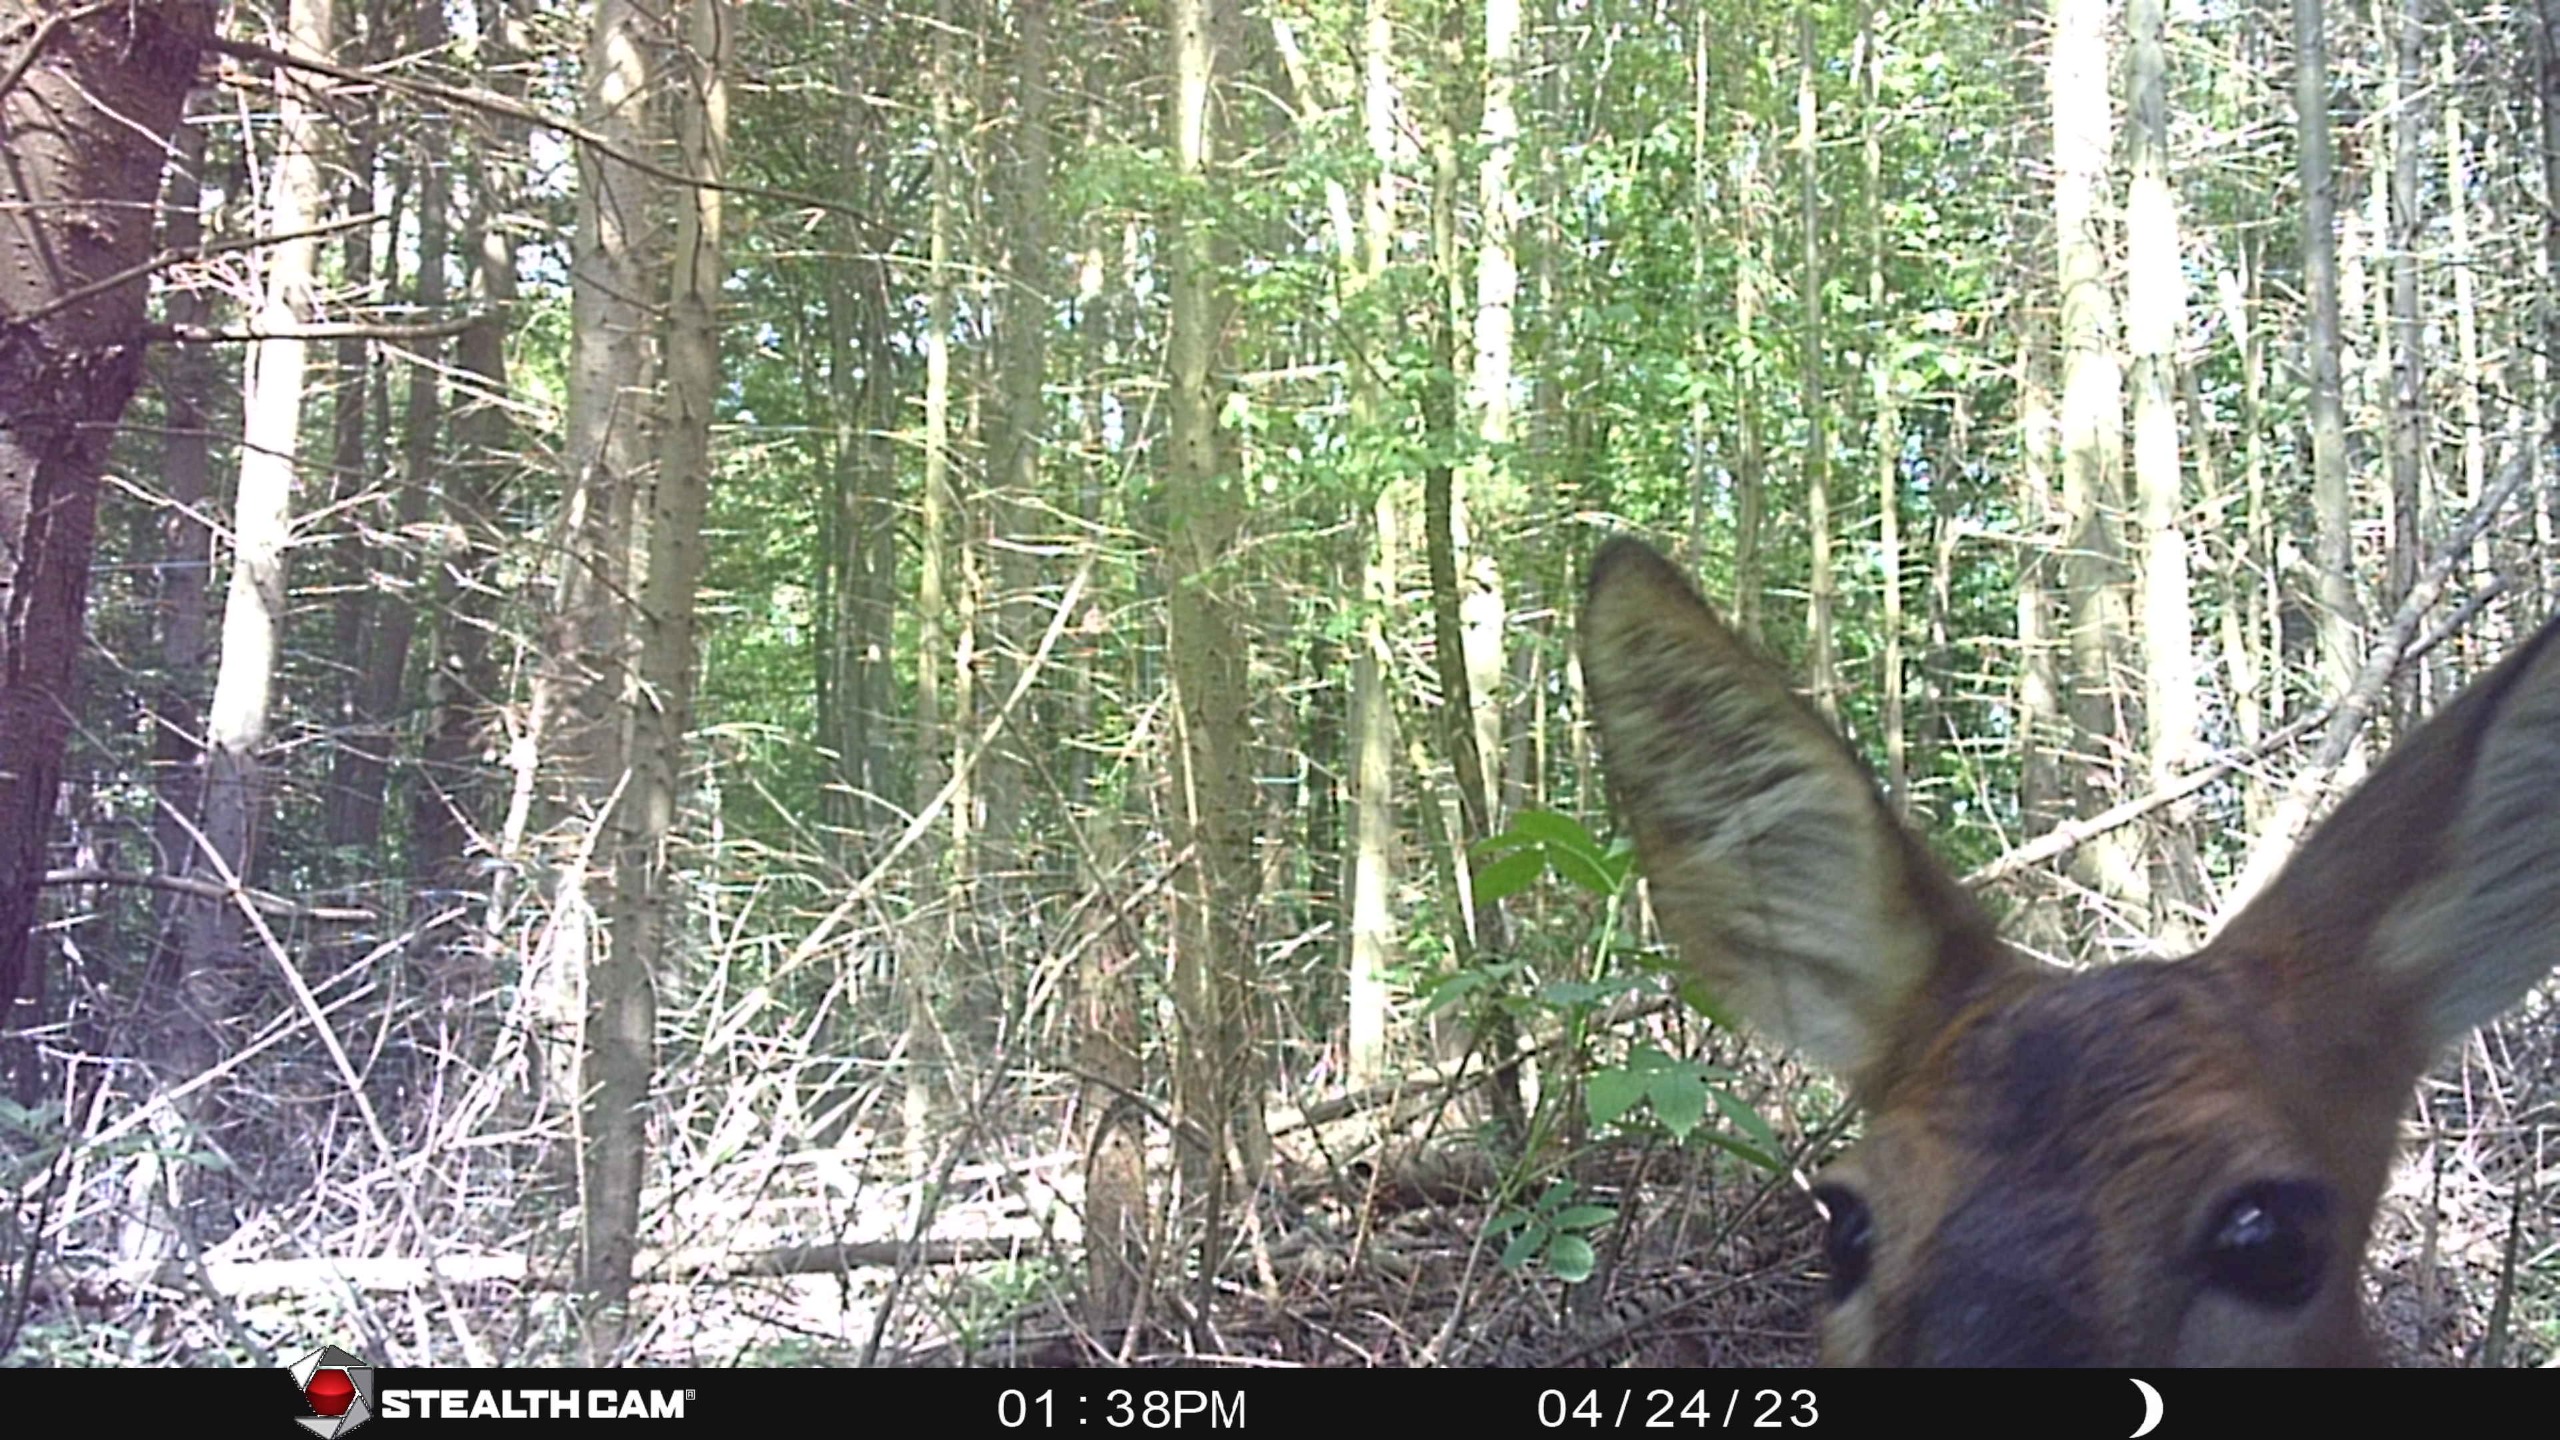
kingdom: Animalia
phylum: Chordata
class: Mammalia
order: Artiodactyla
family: Cervidae
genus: Capreolus
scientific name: Capreolus capreolus
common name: Rådyr
